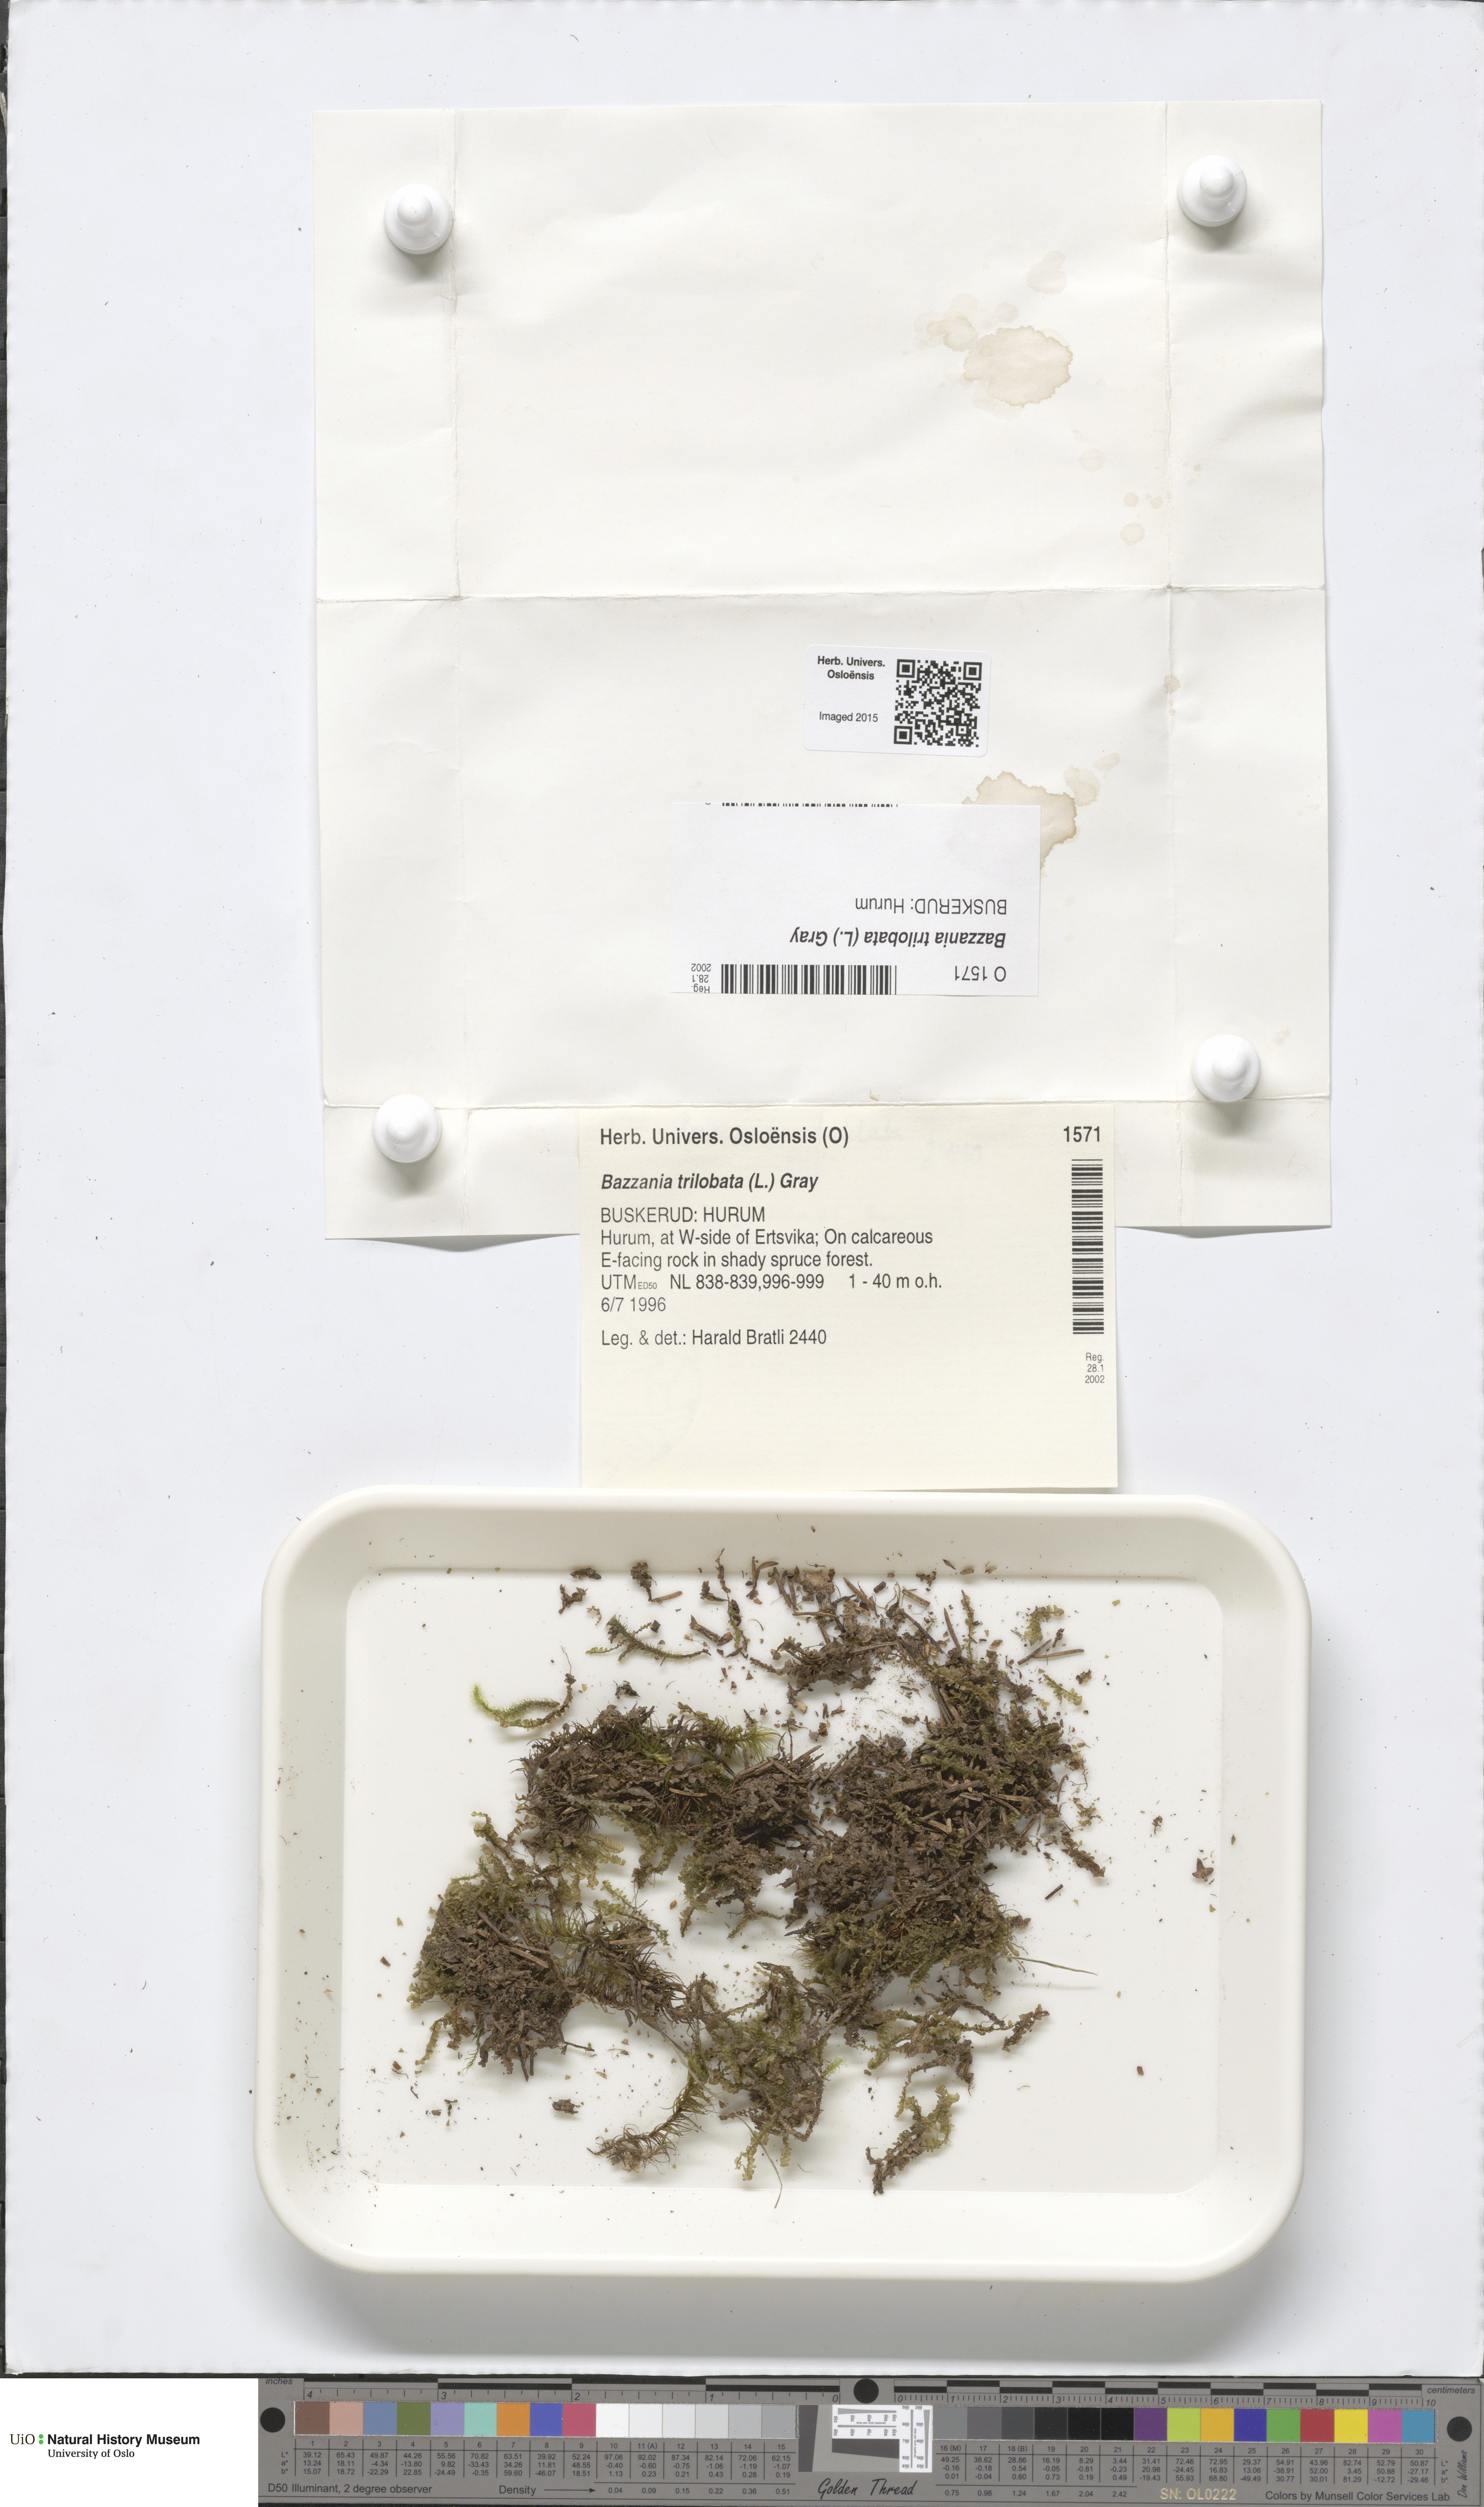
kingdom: Plantae
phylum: Marchantiophyta
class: Jungermanniopsida
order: Jungermanniales
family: Lepidoziaceae
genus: Bazzania
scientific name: Bazzania trilobata
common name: Three-lobed whipwort
